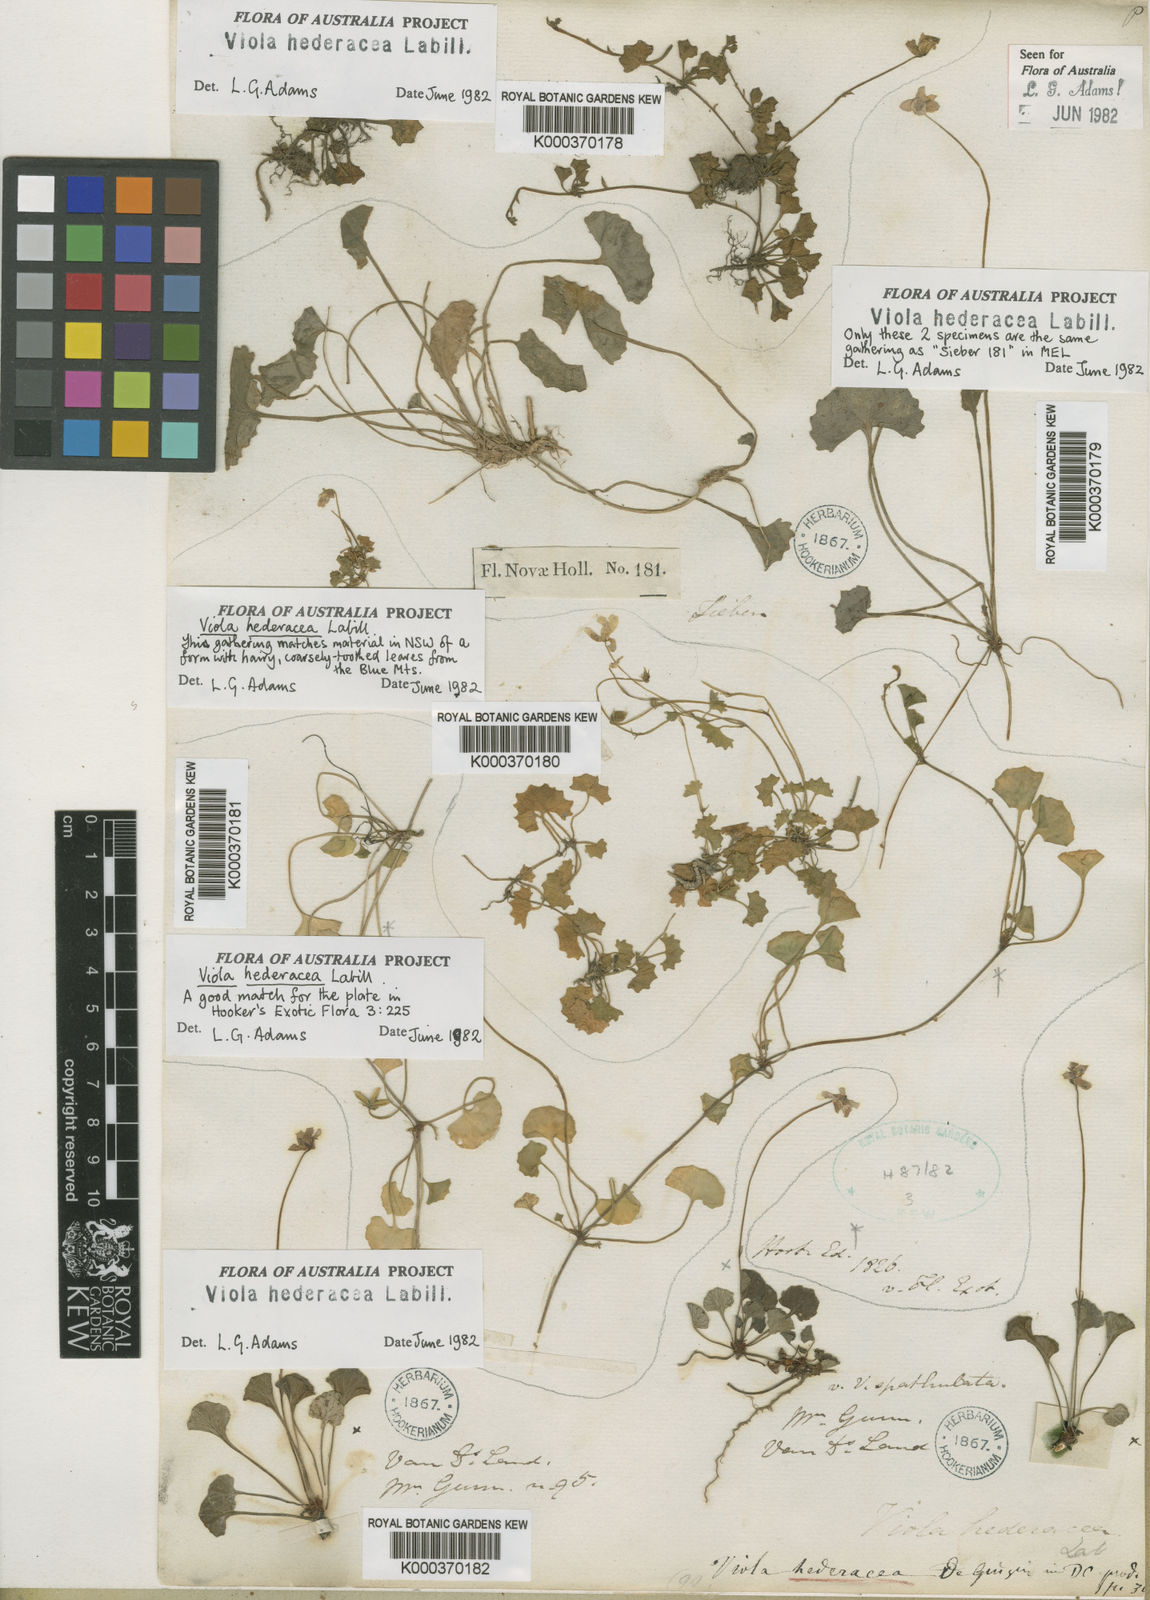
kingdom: Plantae
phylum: Tracheophyta
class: Magnoliopsida
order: Malpighiales
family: Violaceae
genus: Viola
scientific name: Viola hederacea
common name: Australian violet
